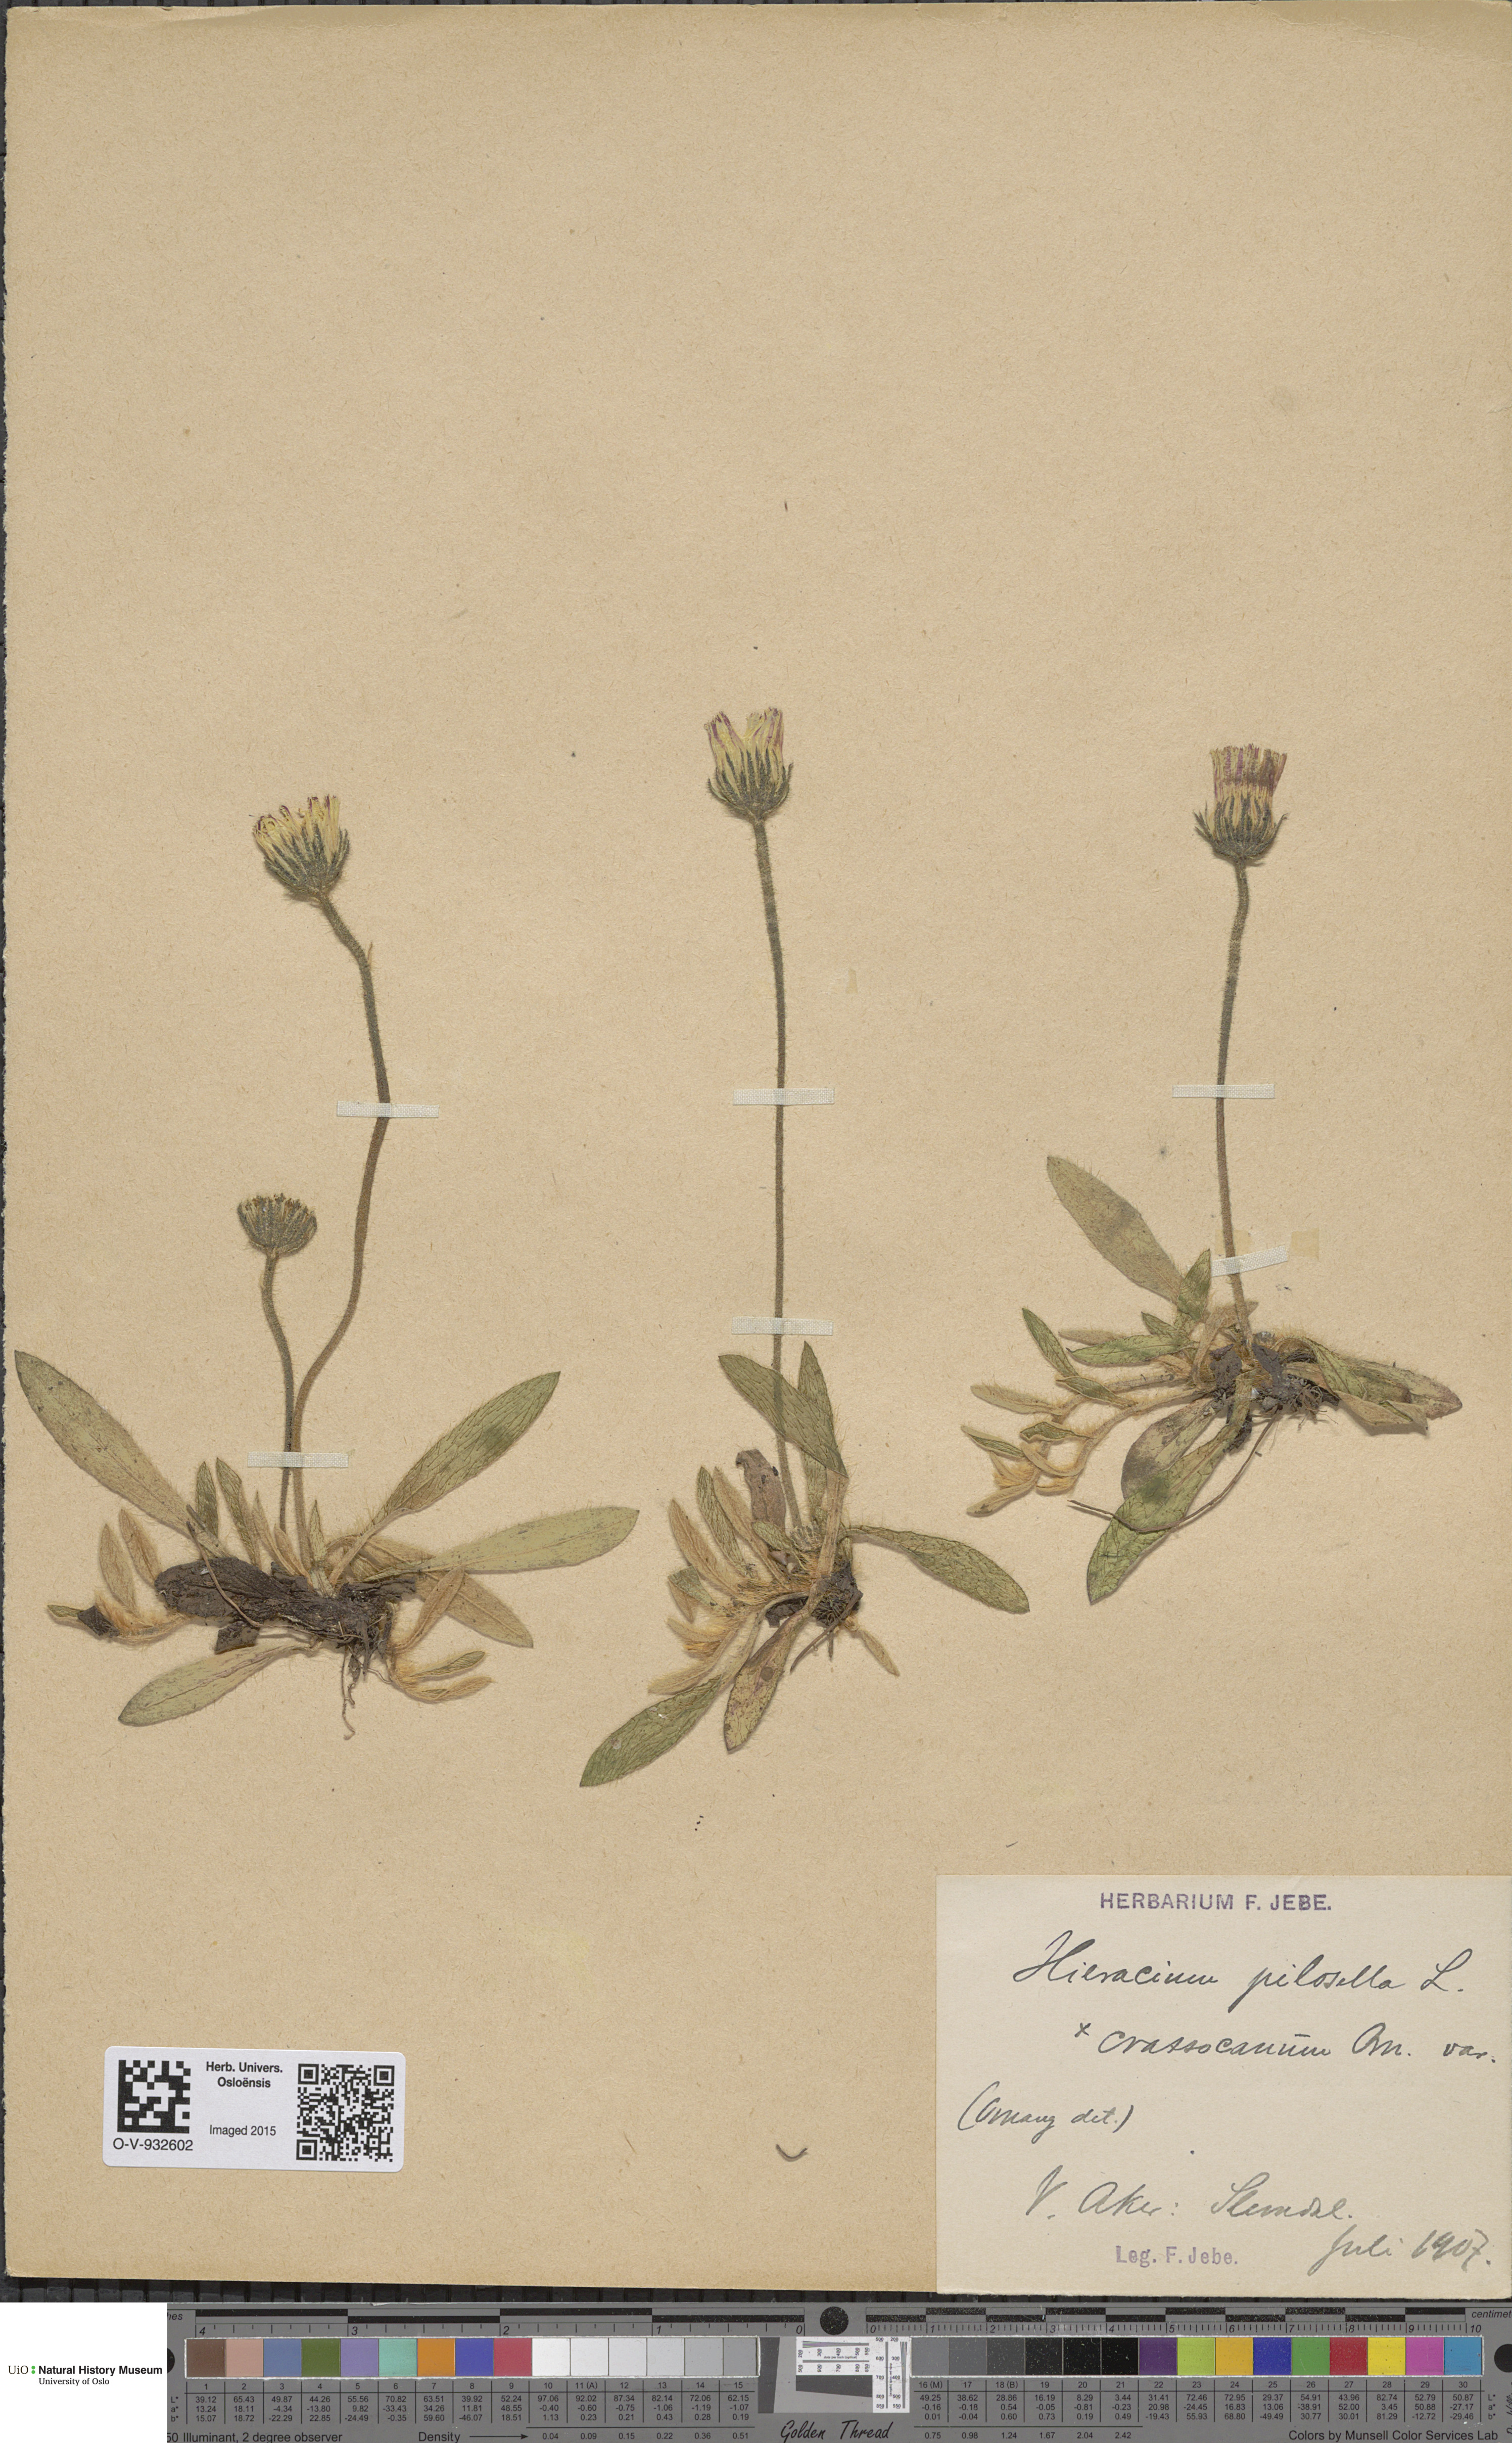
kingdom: Plantae
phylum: Tracheophyta
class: Magnoliopsida
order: Asterales
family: Asteraceae
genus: Pilosella
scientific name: Pilosella officinarum
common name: Mouse-ear hawkweed
